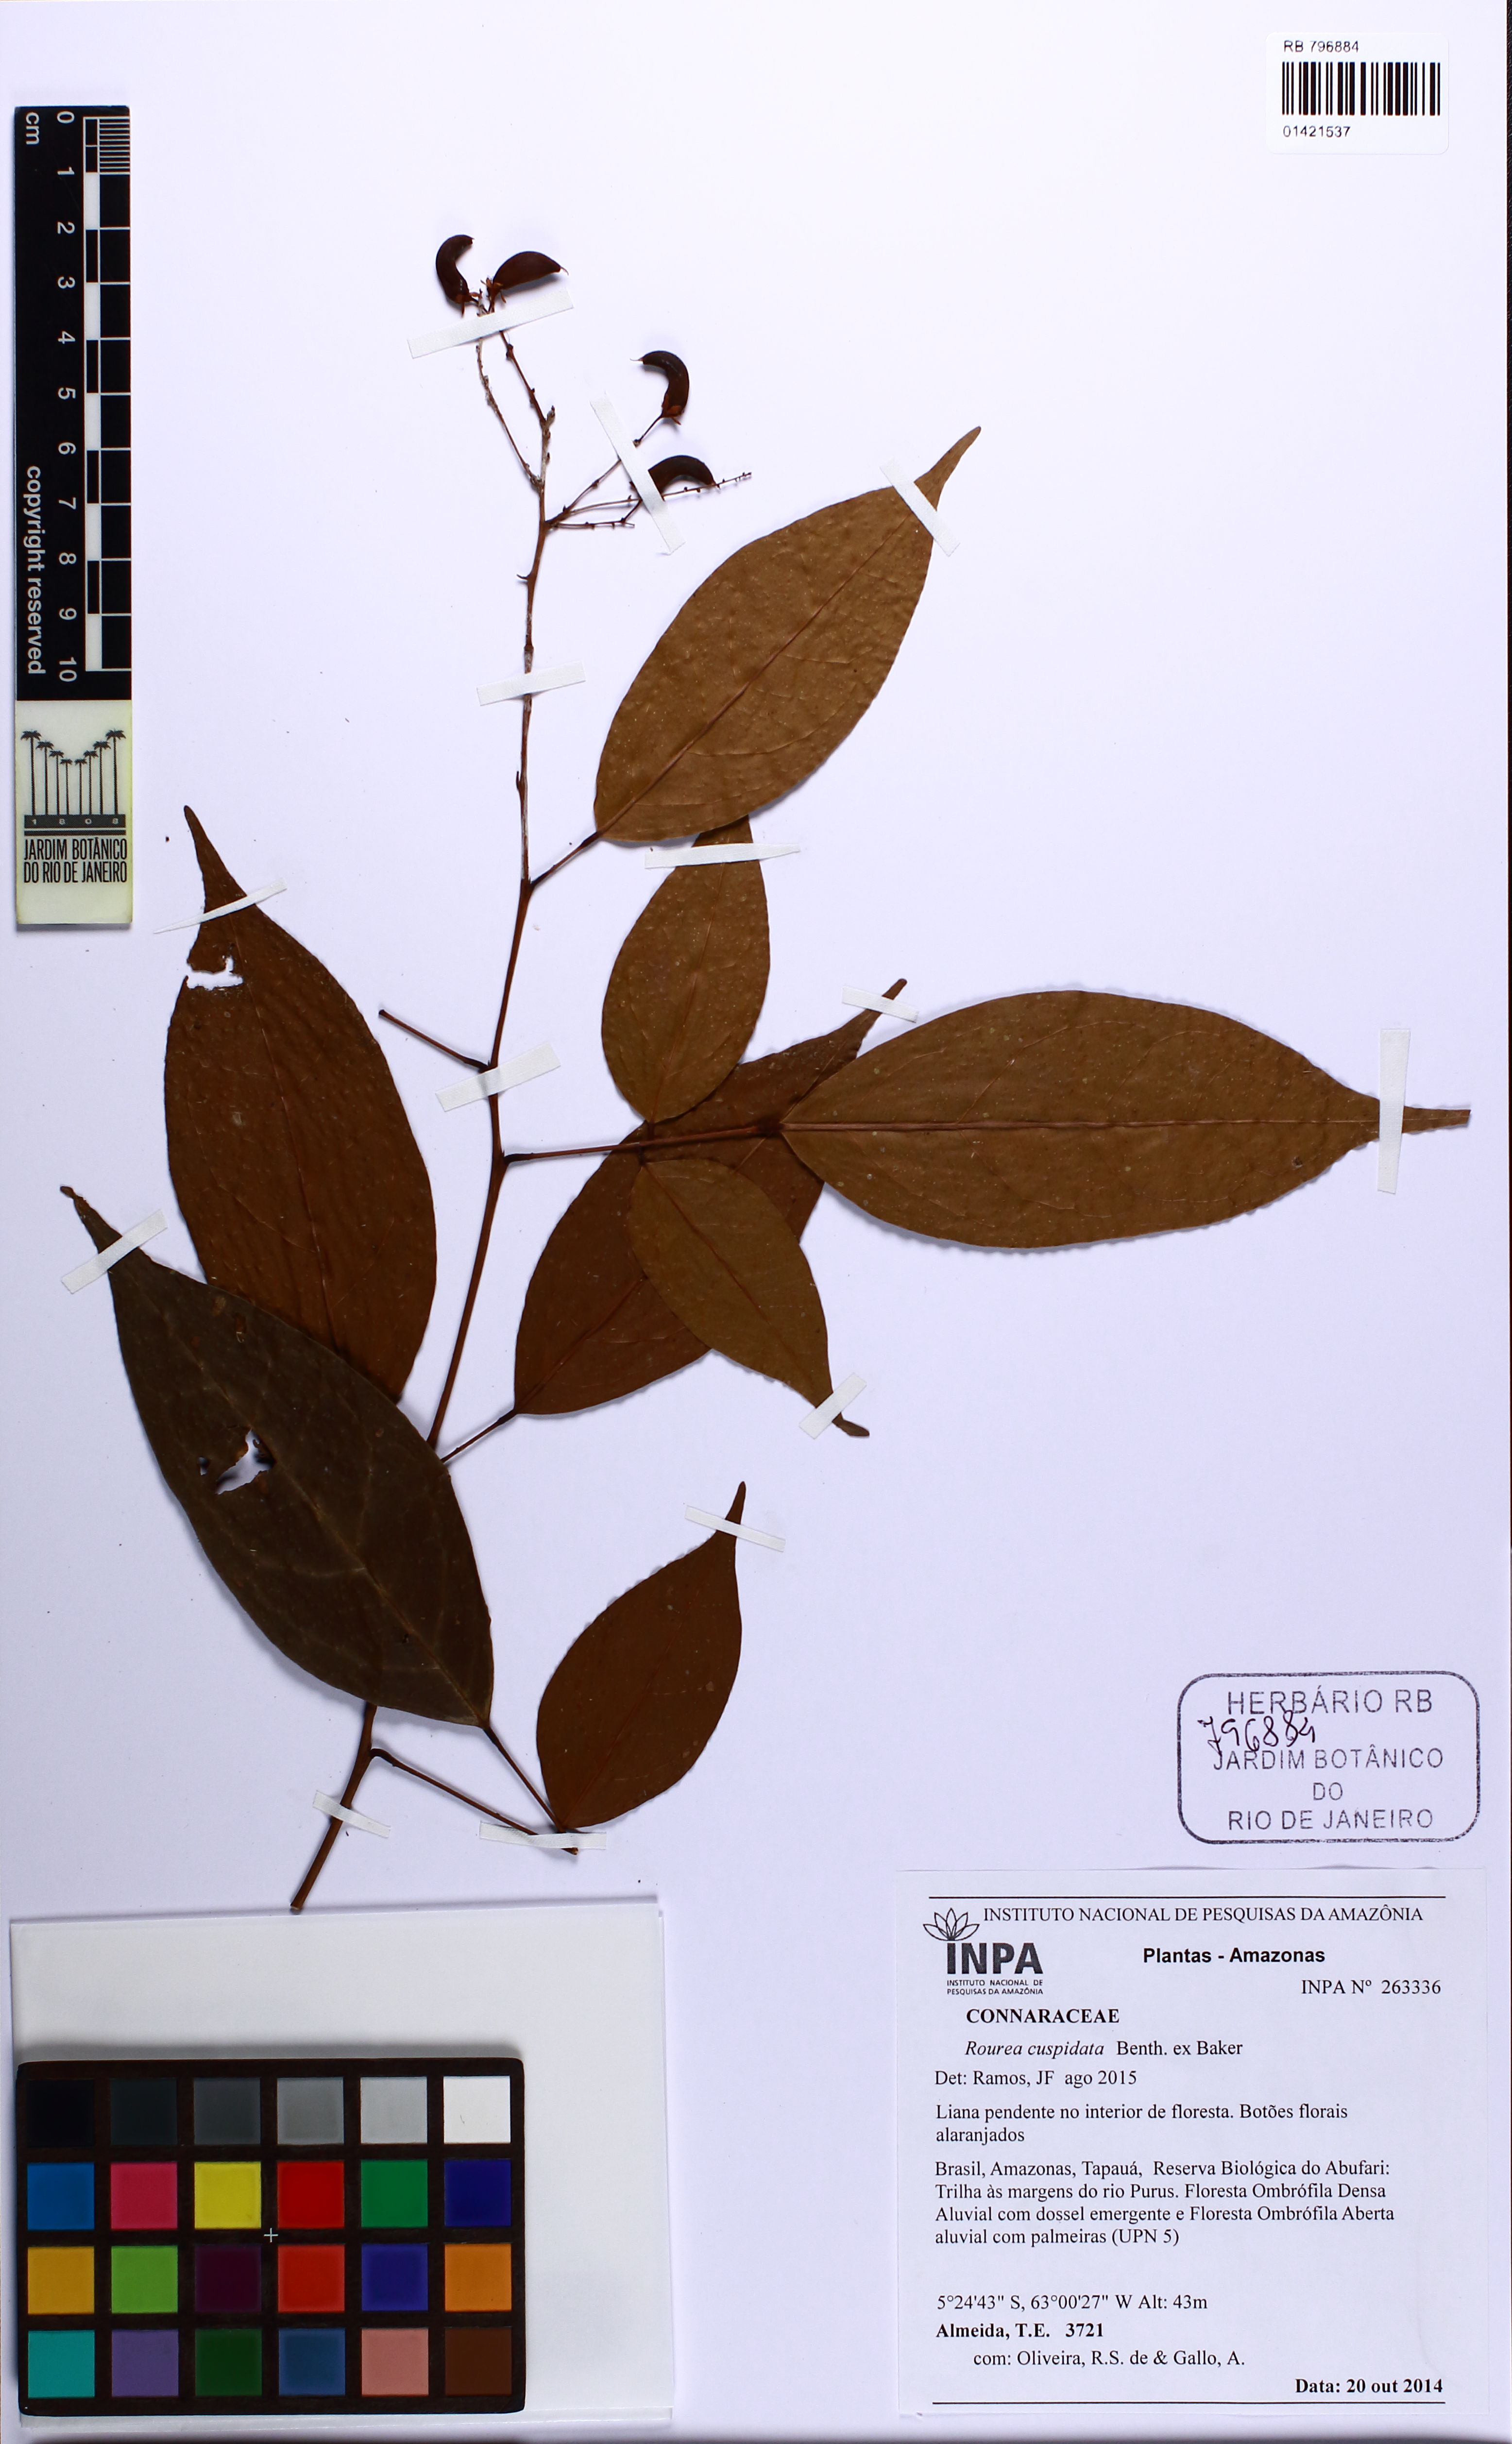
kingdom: Plantae
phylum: Tracheophyta
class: Magnoliopsida
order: Oxalidales
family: Connaraceae
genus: Rourea
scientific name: Rourea cuspidata
